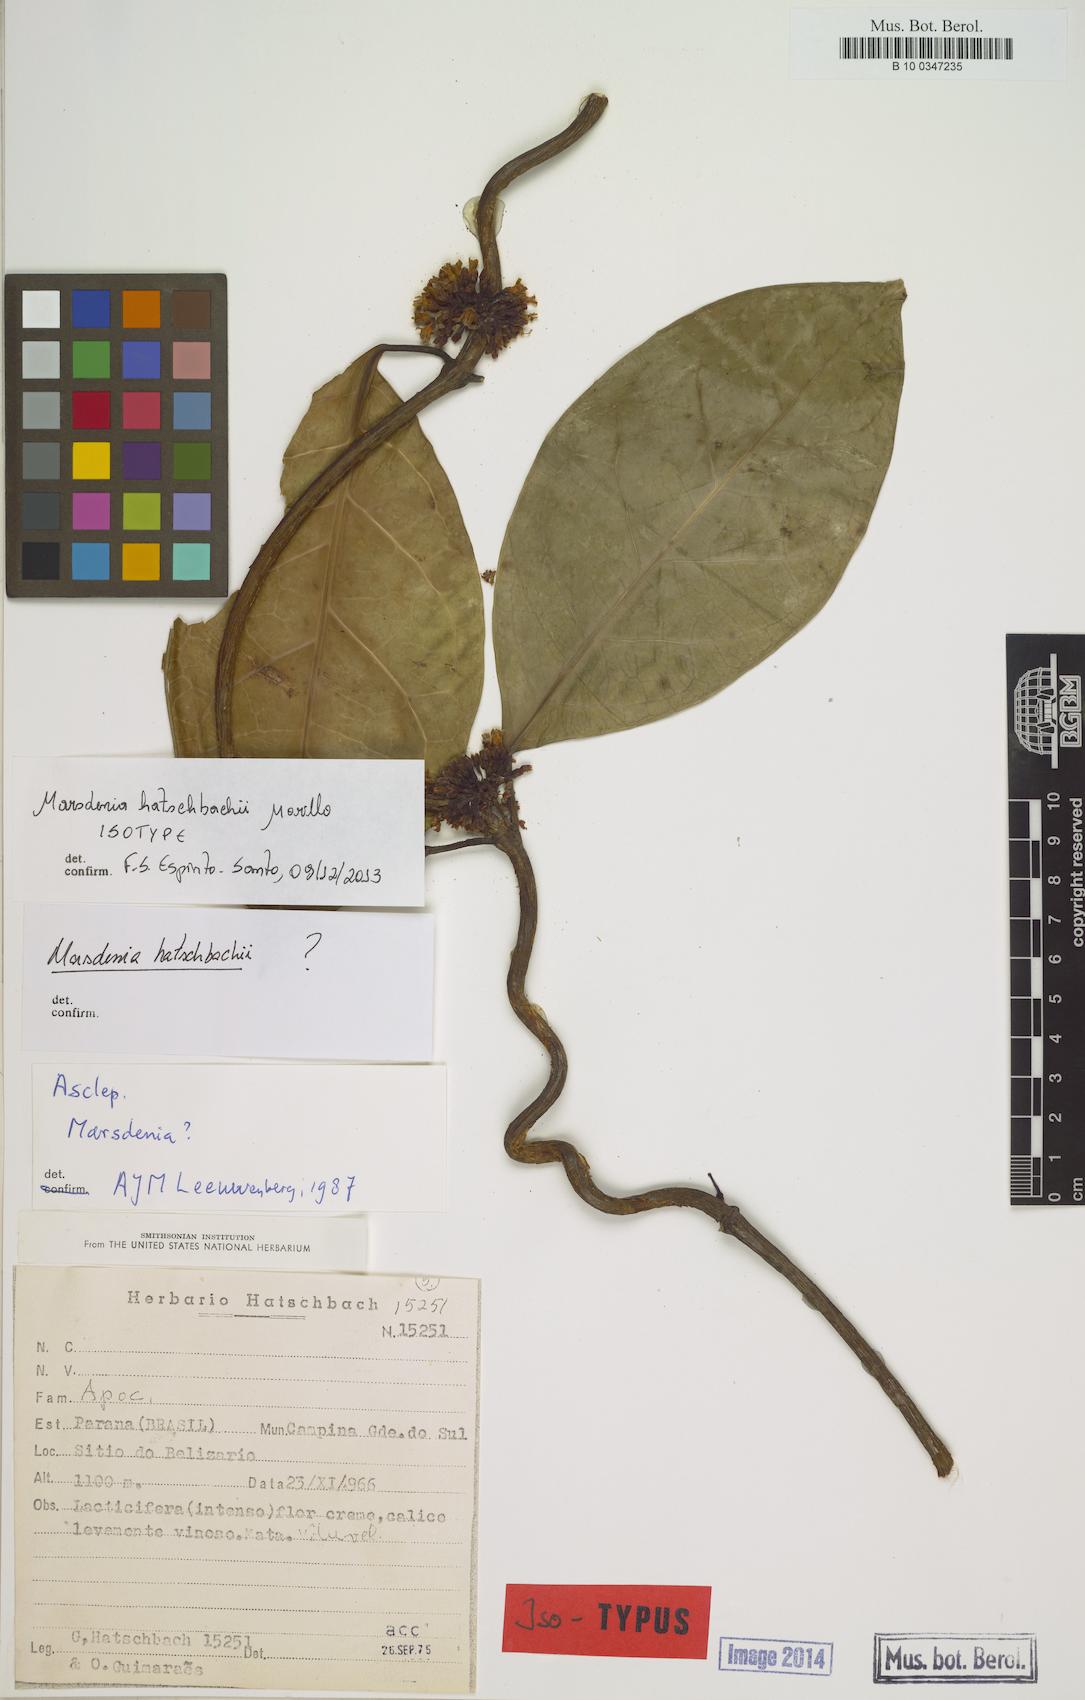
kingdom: Plantae
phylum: Tracheophyta
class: Magnoliopsida
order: Gentianales
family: Apocynaceae
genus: Ruehssia
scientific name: Ruehssia hatschbachii
